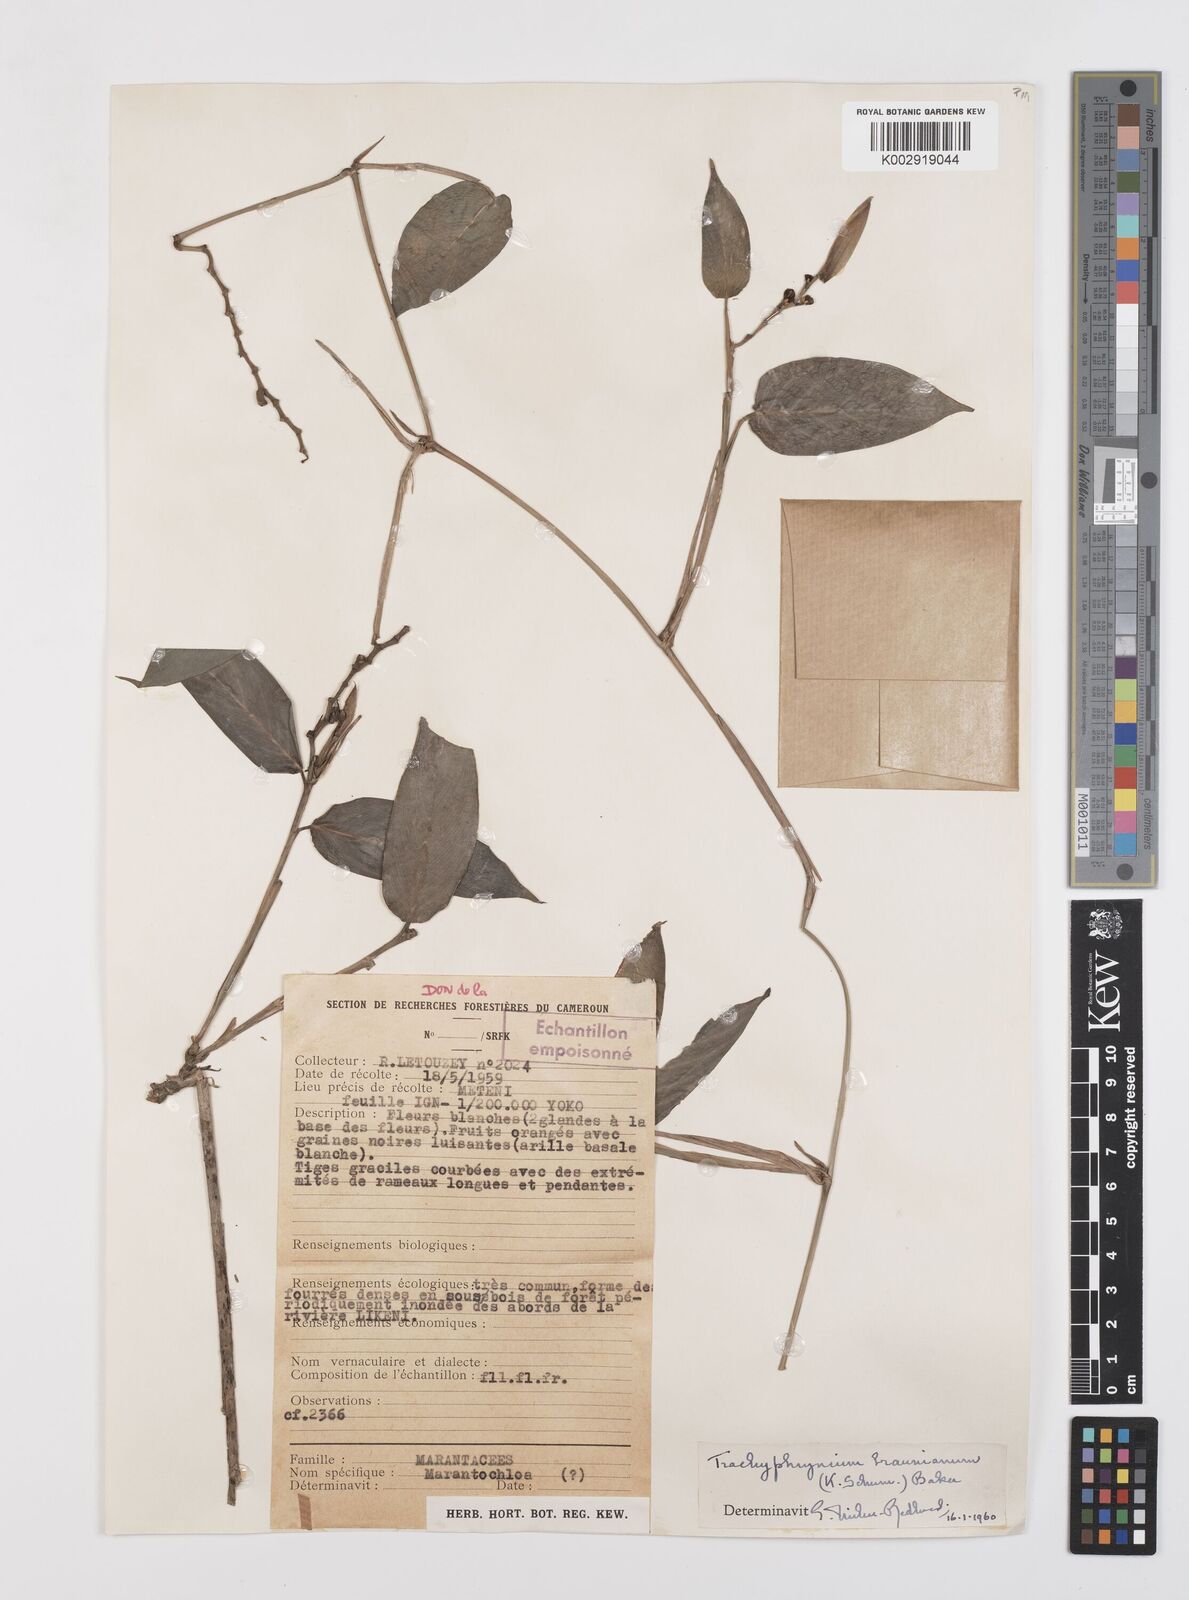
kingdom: Plantae
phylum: Tracheophyta
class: Liliopsida
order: Zingiberales
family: Marantaceae
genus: Trachyphrynium
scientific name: Trachyphrynium braunianum
